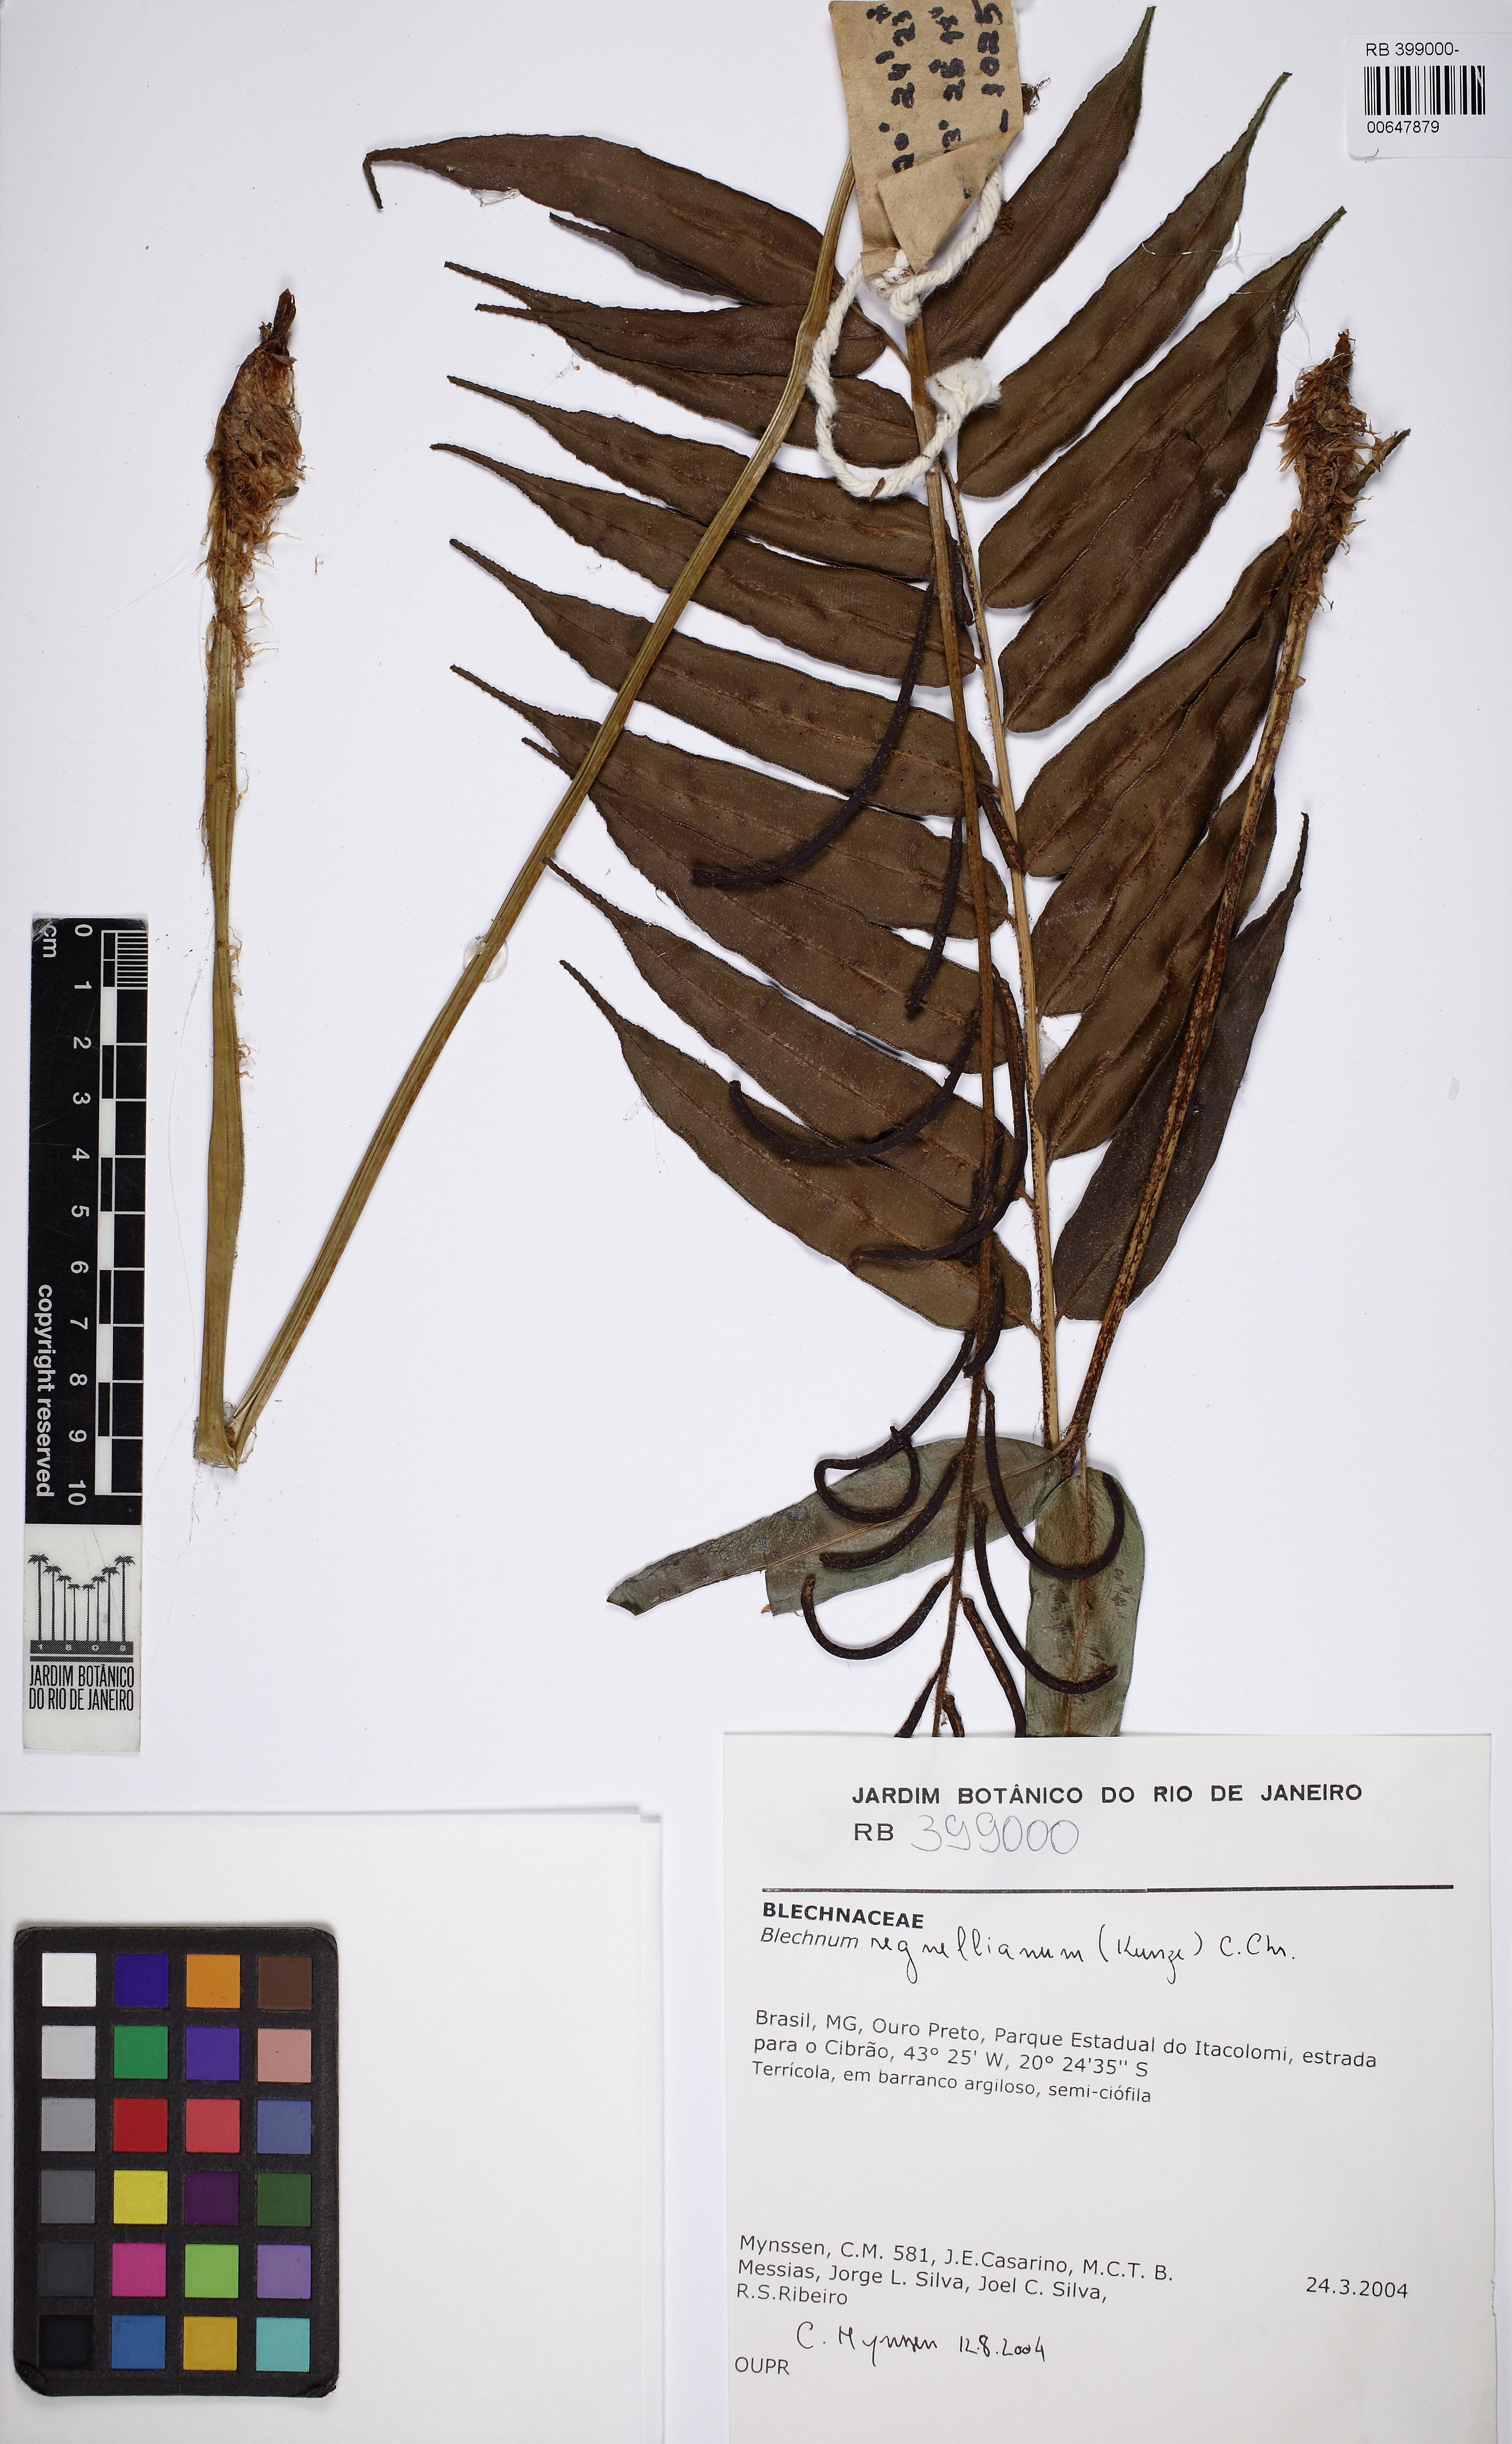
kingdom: Plantae
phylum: Tracheophyta
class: Polypodiopsida
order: Polypodiales
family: Blechnaceae
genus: Parablechnum
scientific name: Parablechnum cordatum
